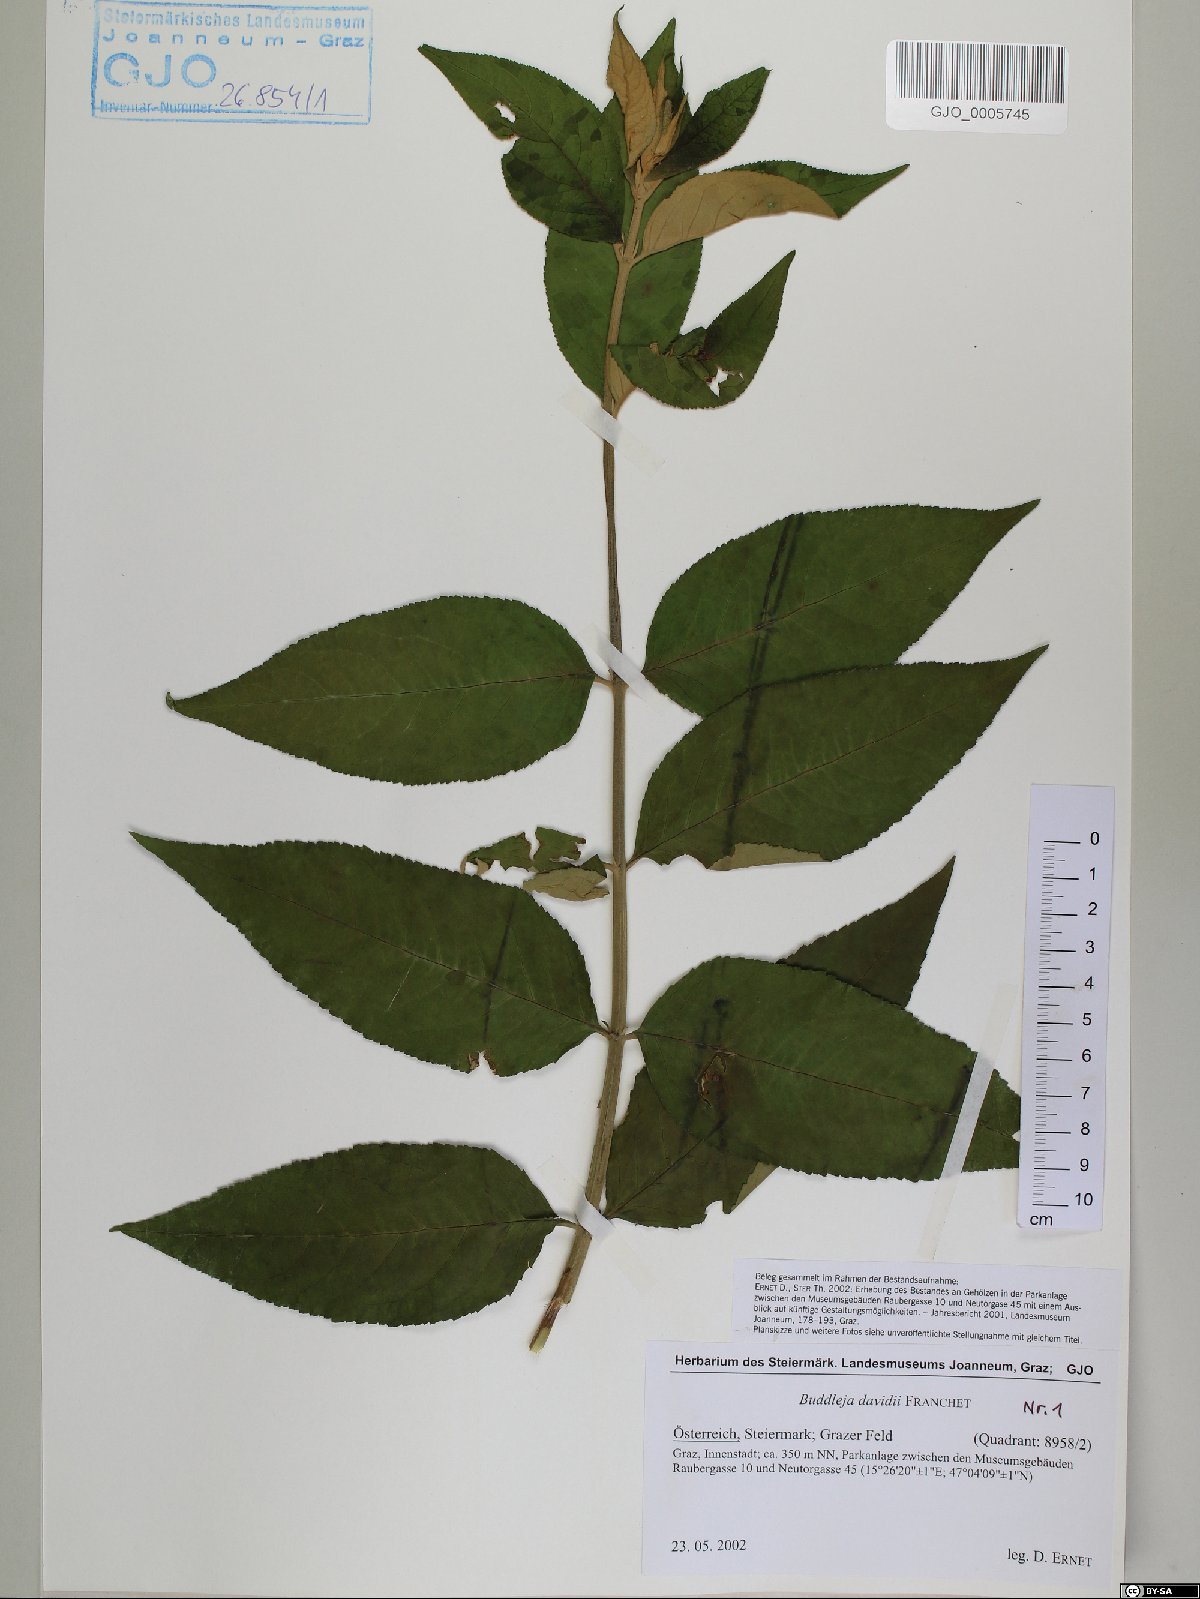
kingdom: Plantae
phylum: Tracheophyta
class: Magnoliopsida
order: Lamiales
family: Scrophulariaceae
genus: Buddleja
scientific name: Buddleja davidii
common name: Butterfly-bush
